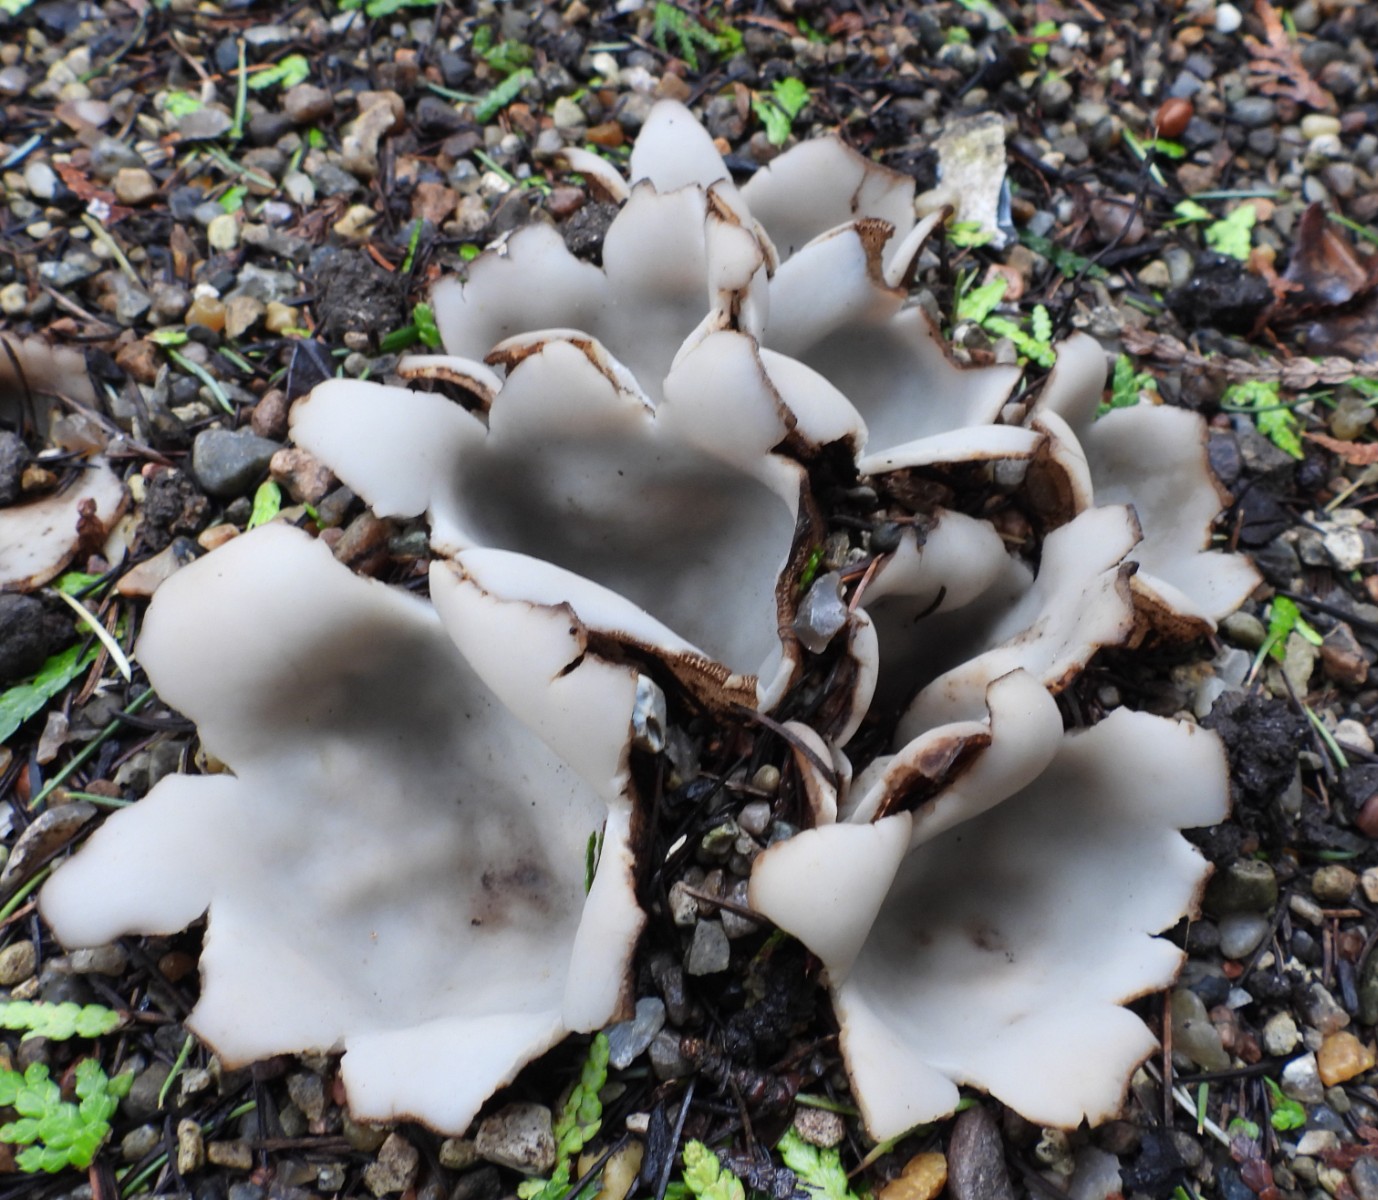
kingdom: Fungi
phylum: Ascomycota
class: Pezizomycetes
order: Pezizales
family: Pyronemataceae
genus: Geopora
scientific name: Geopora sumneriana
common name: vår-jordbæger
